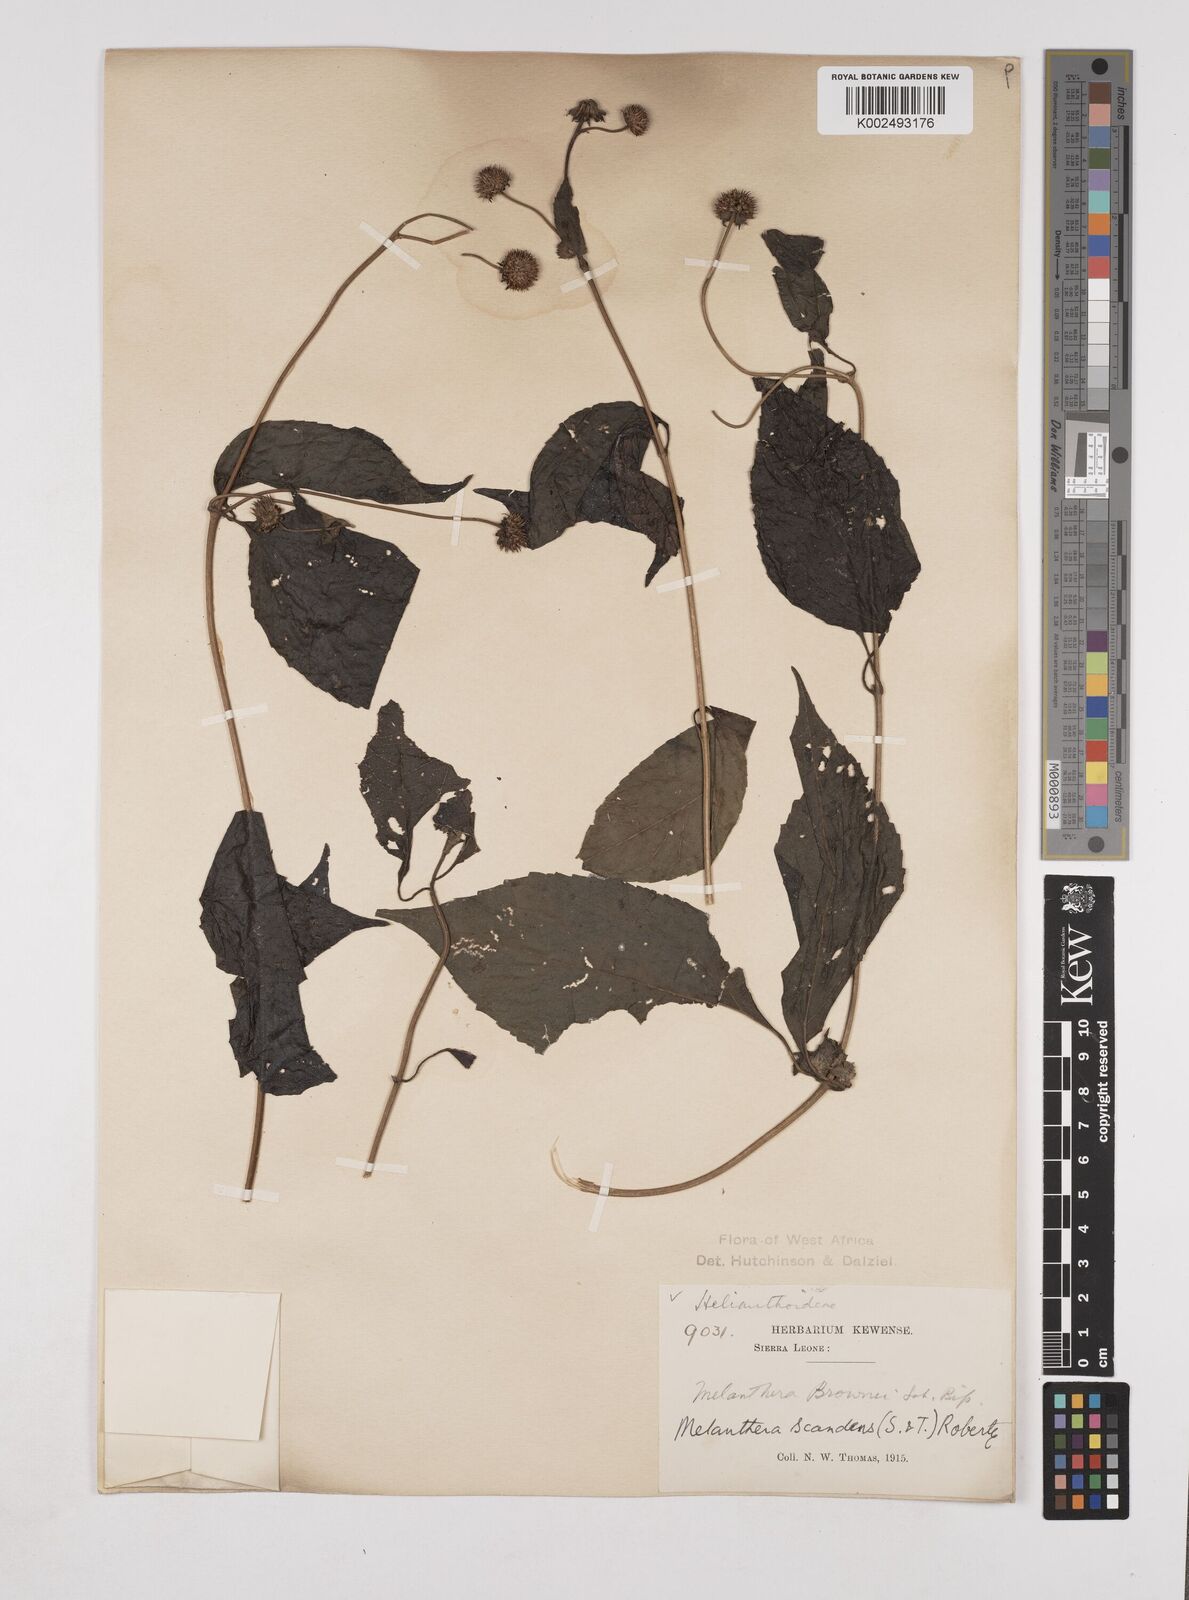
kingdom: Plantae
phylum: Tracheophyta
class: Magnoliopsida
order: Asterales
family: Asteraceae
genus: Lipotriche
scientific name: Lipotriche scandens
